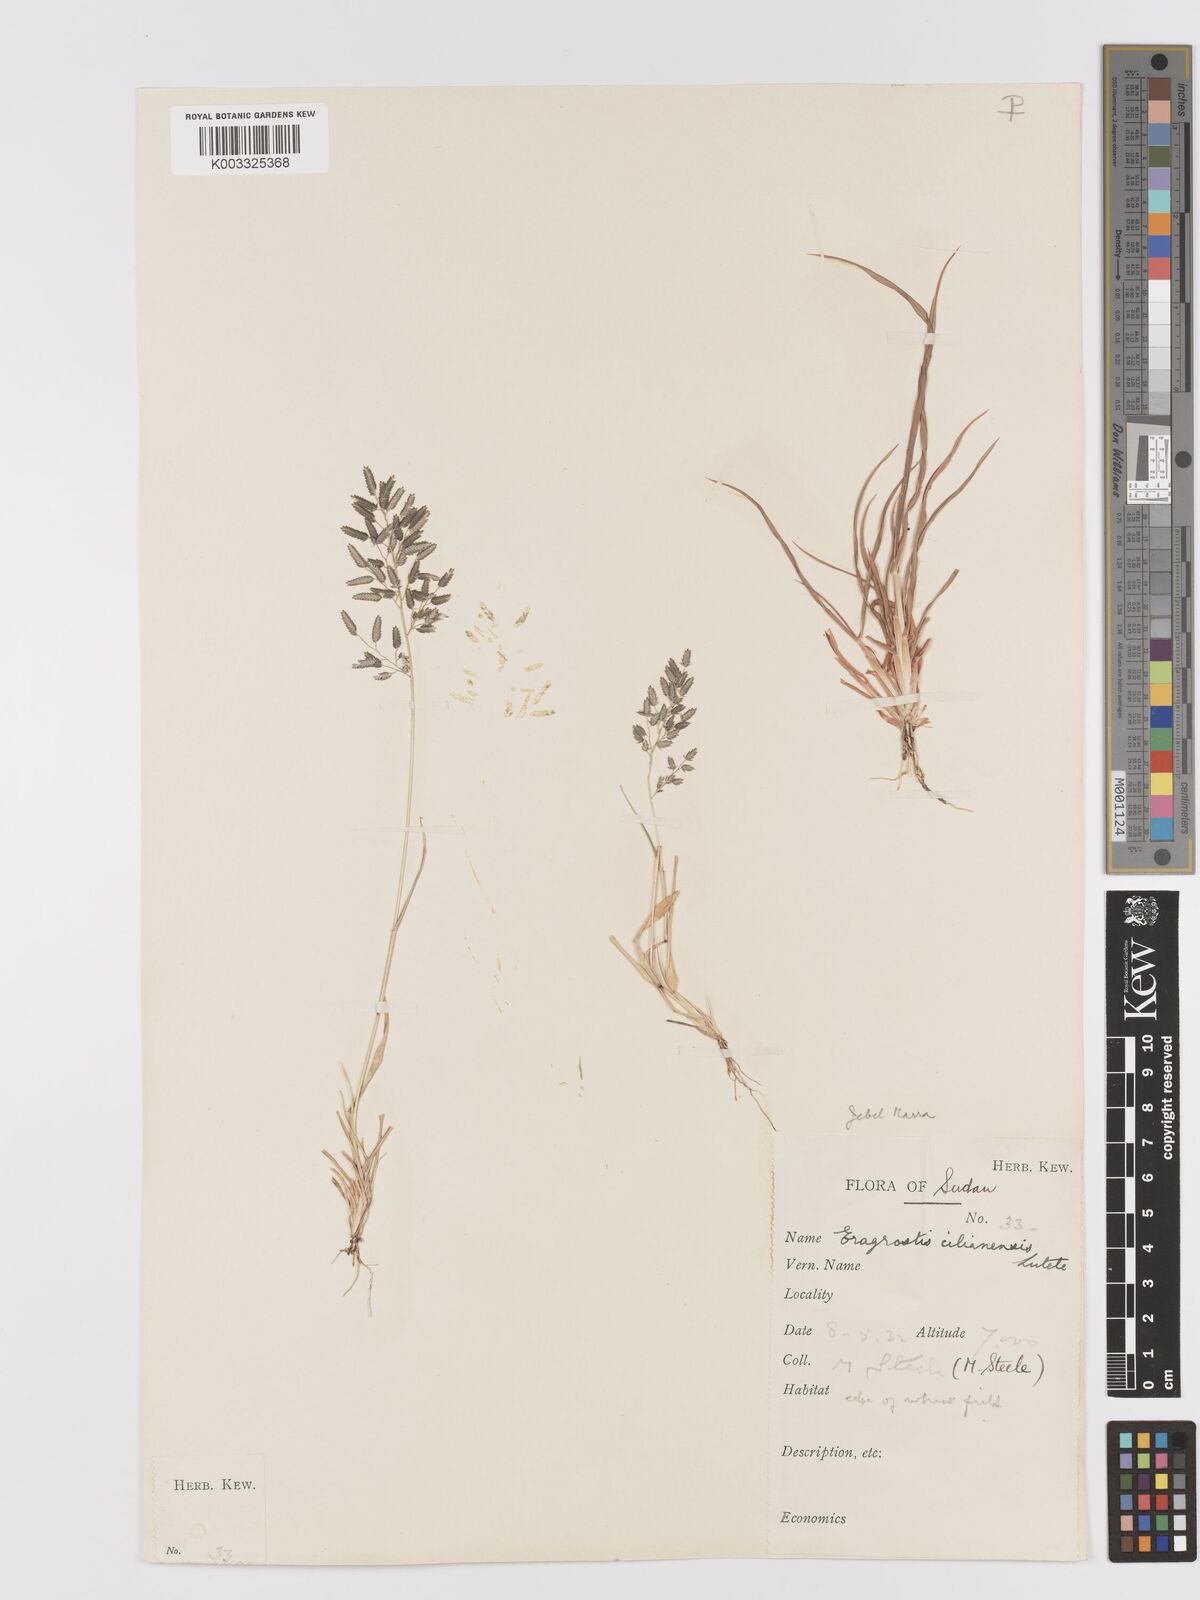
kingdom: Plantae
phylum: Tracheophyta
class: Liliopsida
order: Poales
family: Poaceae
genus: Eragrostis
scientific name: Eragrostis cilianensis
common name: Stinkgrass
